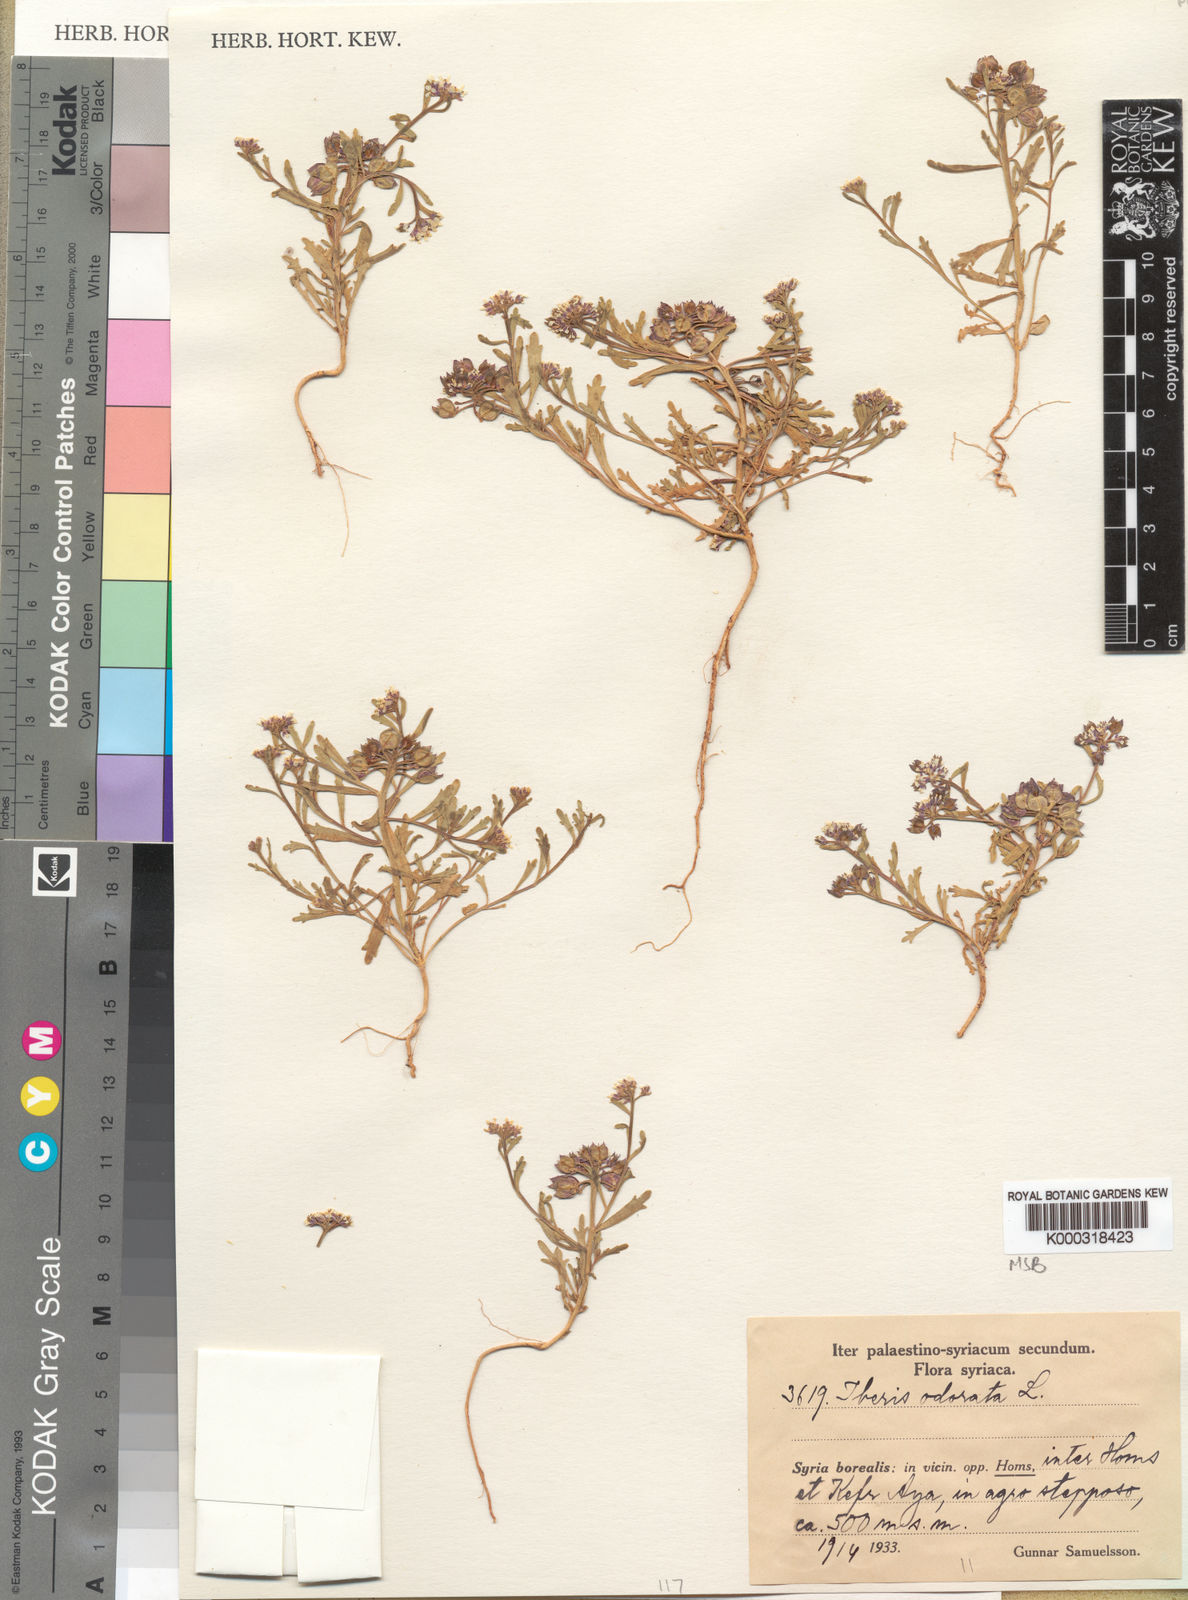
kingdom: Plantae
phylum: Tracheophyta
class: Magnoliopsida
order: Brassicales
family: Brassicaceae
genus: Iberis
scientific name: Iberis odorata
